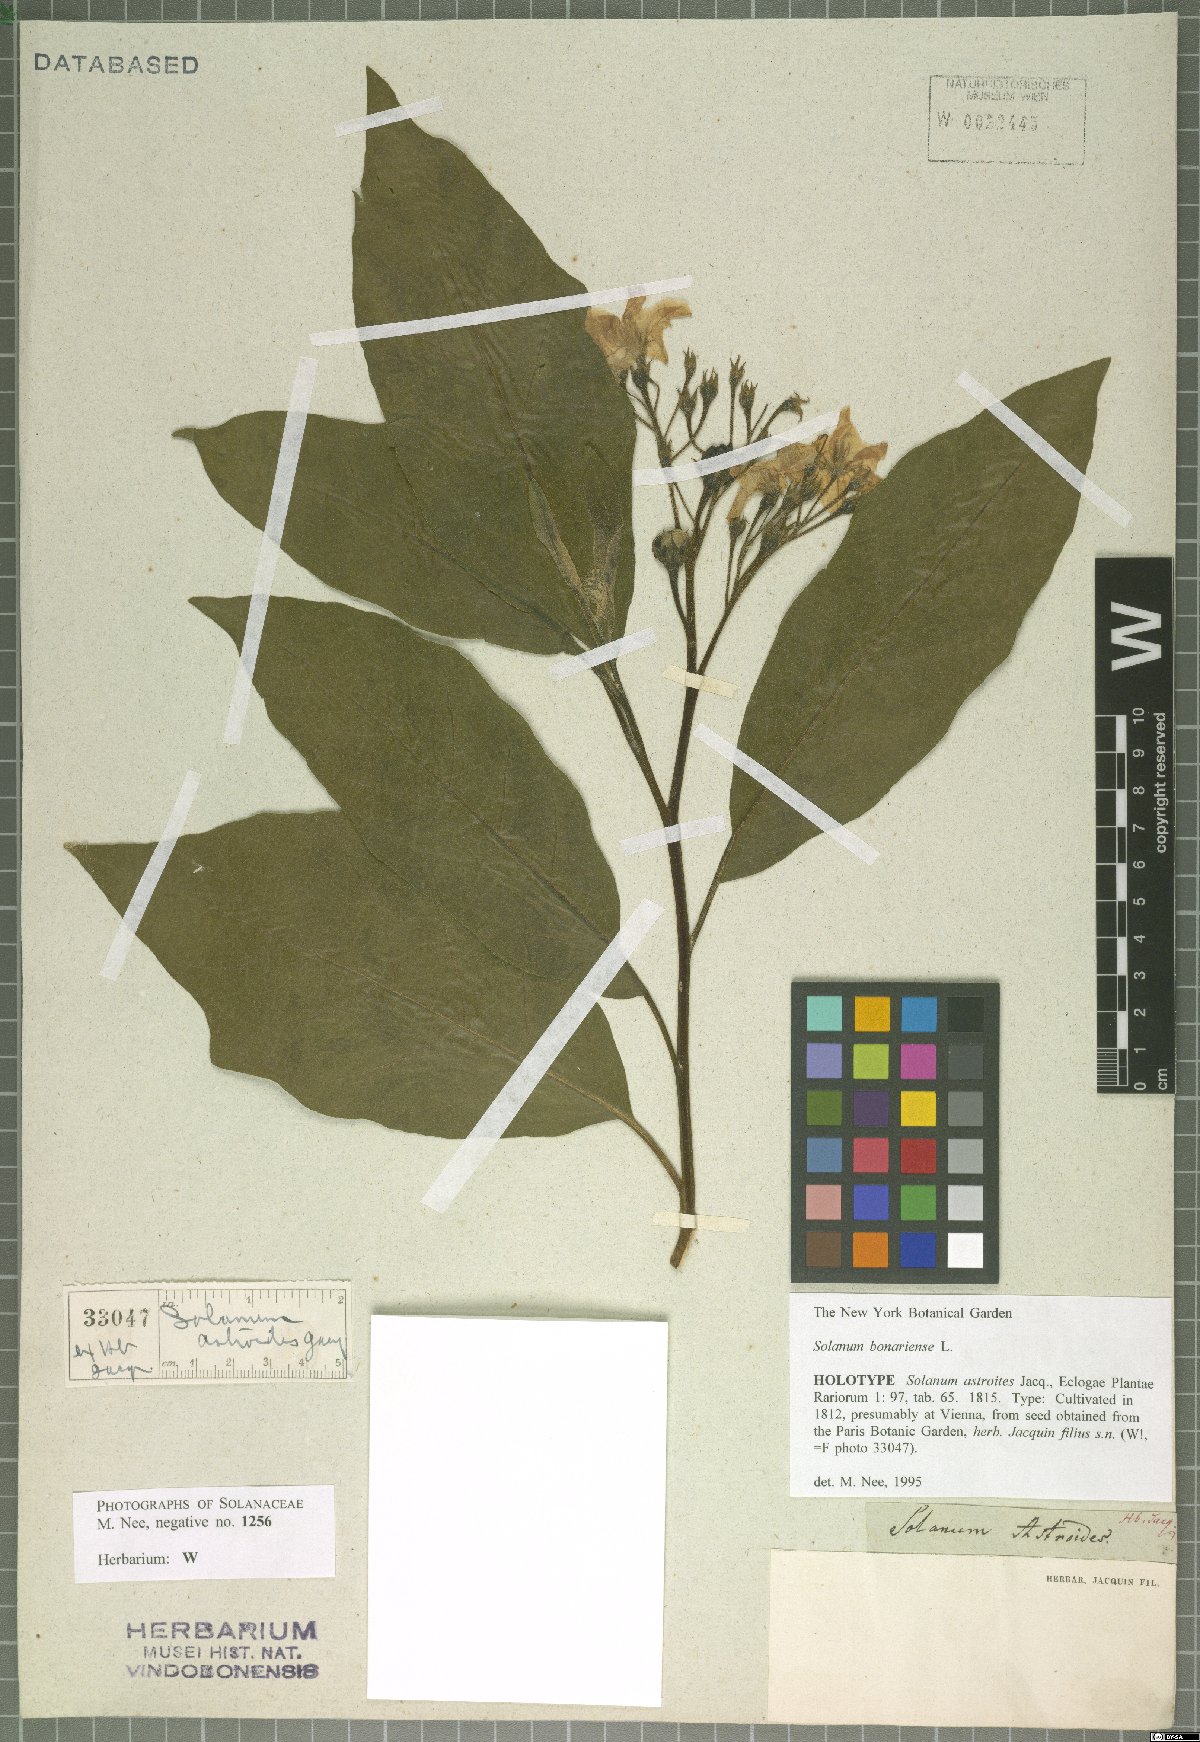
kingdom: Plantae
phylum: Tracheophyta
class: Magnoliopsida
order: Solanales
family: Solanaceae
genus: Solanum
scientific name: Solanum bonariense
